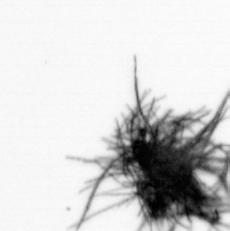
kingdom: Bacteria
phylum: Cyanobacteria
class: Cyanobacteriia
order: Cyanobacteriales
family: Microcoleaceae
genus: Trichodesmium
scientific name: Trichodesmium
